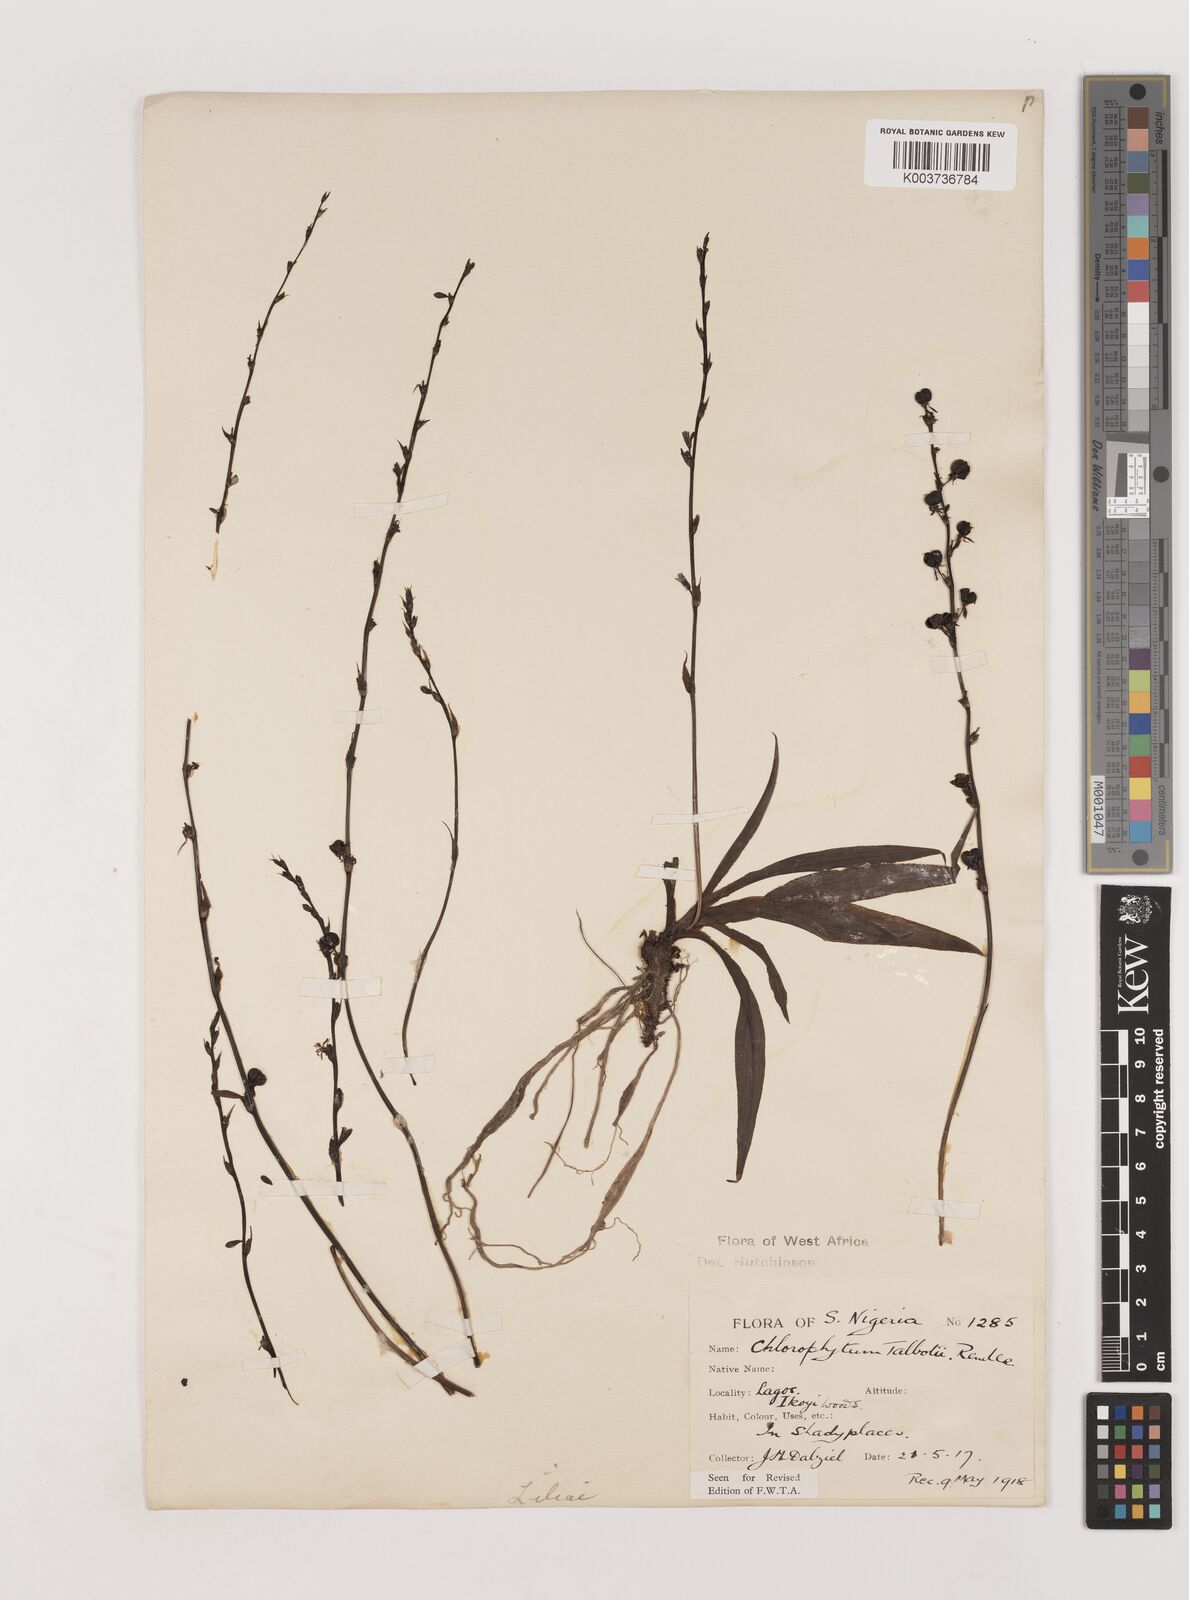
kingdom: Plantae
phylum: Tracheophyta
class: Liliopsida
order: Asparagales
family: Asparagaceae
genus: Chlorophytum
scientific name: Chlorophytum lancifolium
